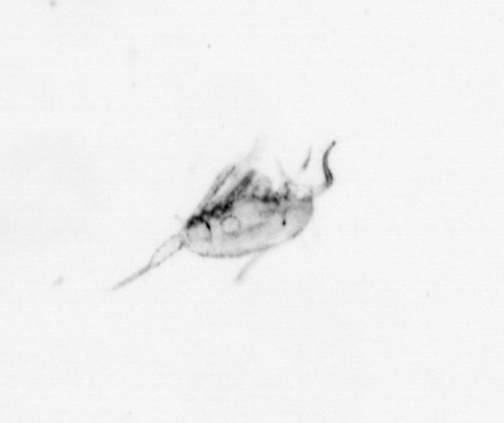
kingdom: Animalia
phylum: Arthropoda
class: Maxillopoda
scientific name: Maxillopoda
